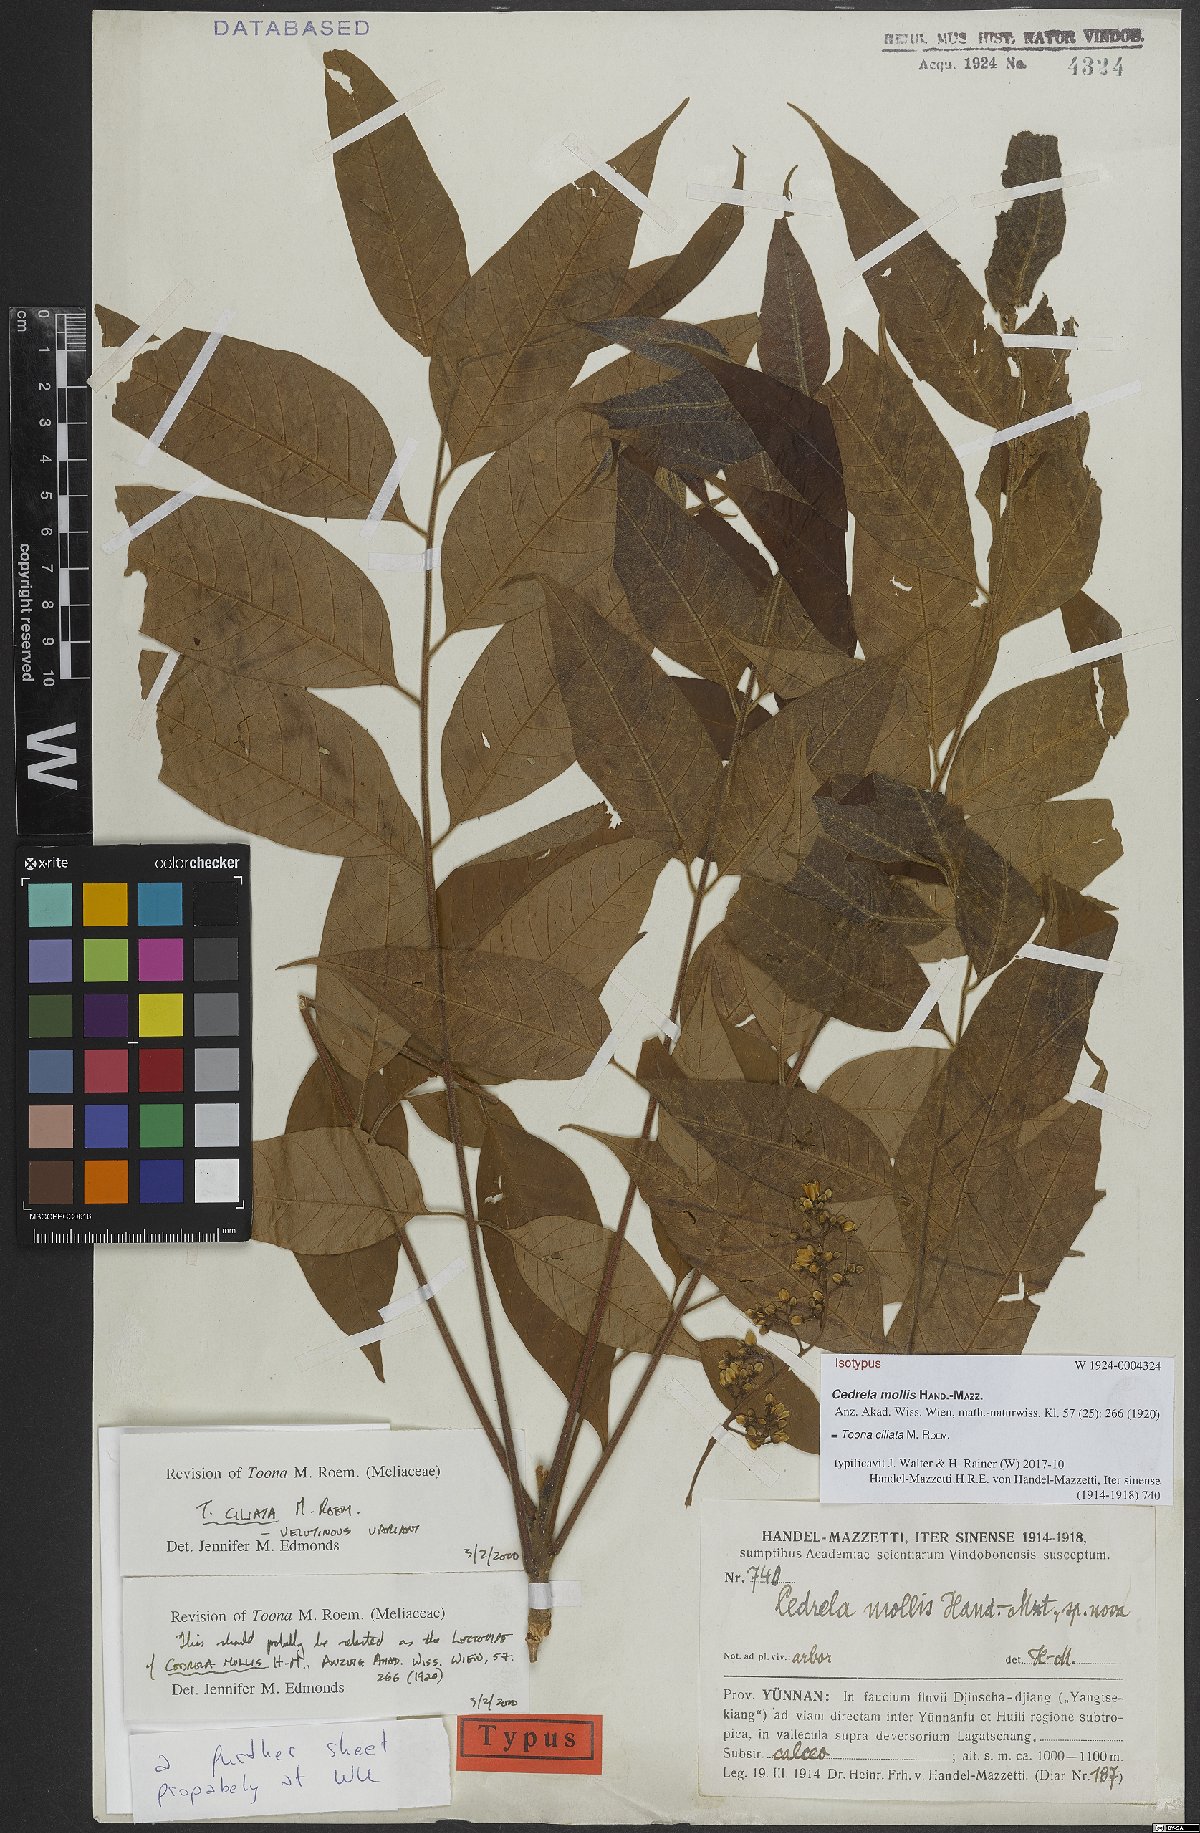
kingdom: Plantae
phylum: Tracheophyta
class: Magnoliopsida
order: Sapindales
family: Meliaceae
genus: Toona
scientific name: Toona ciliata
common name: Australian redcedar
